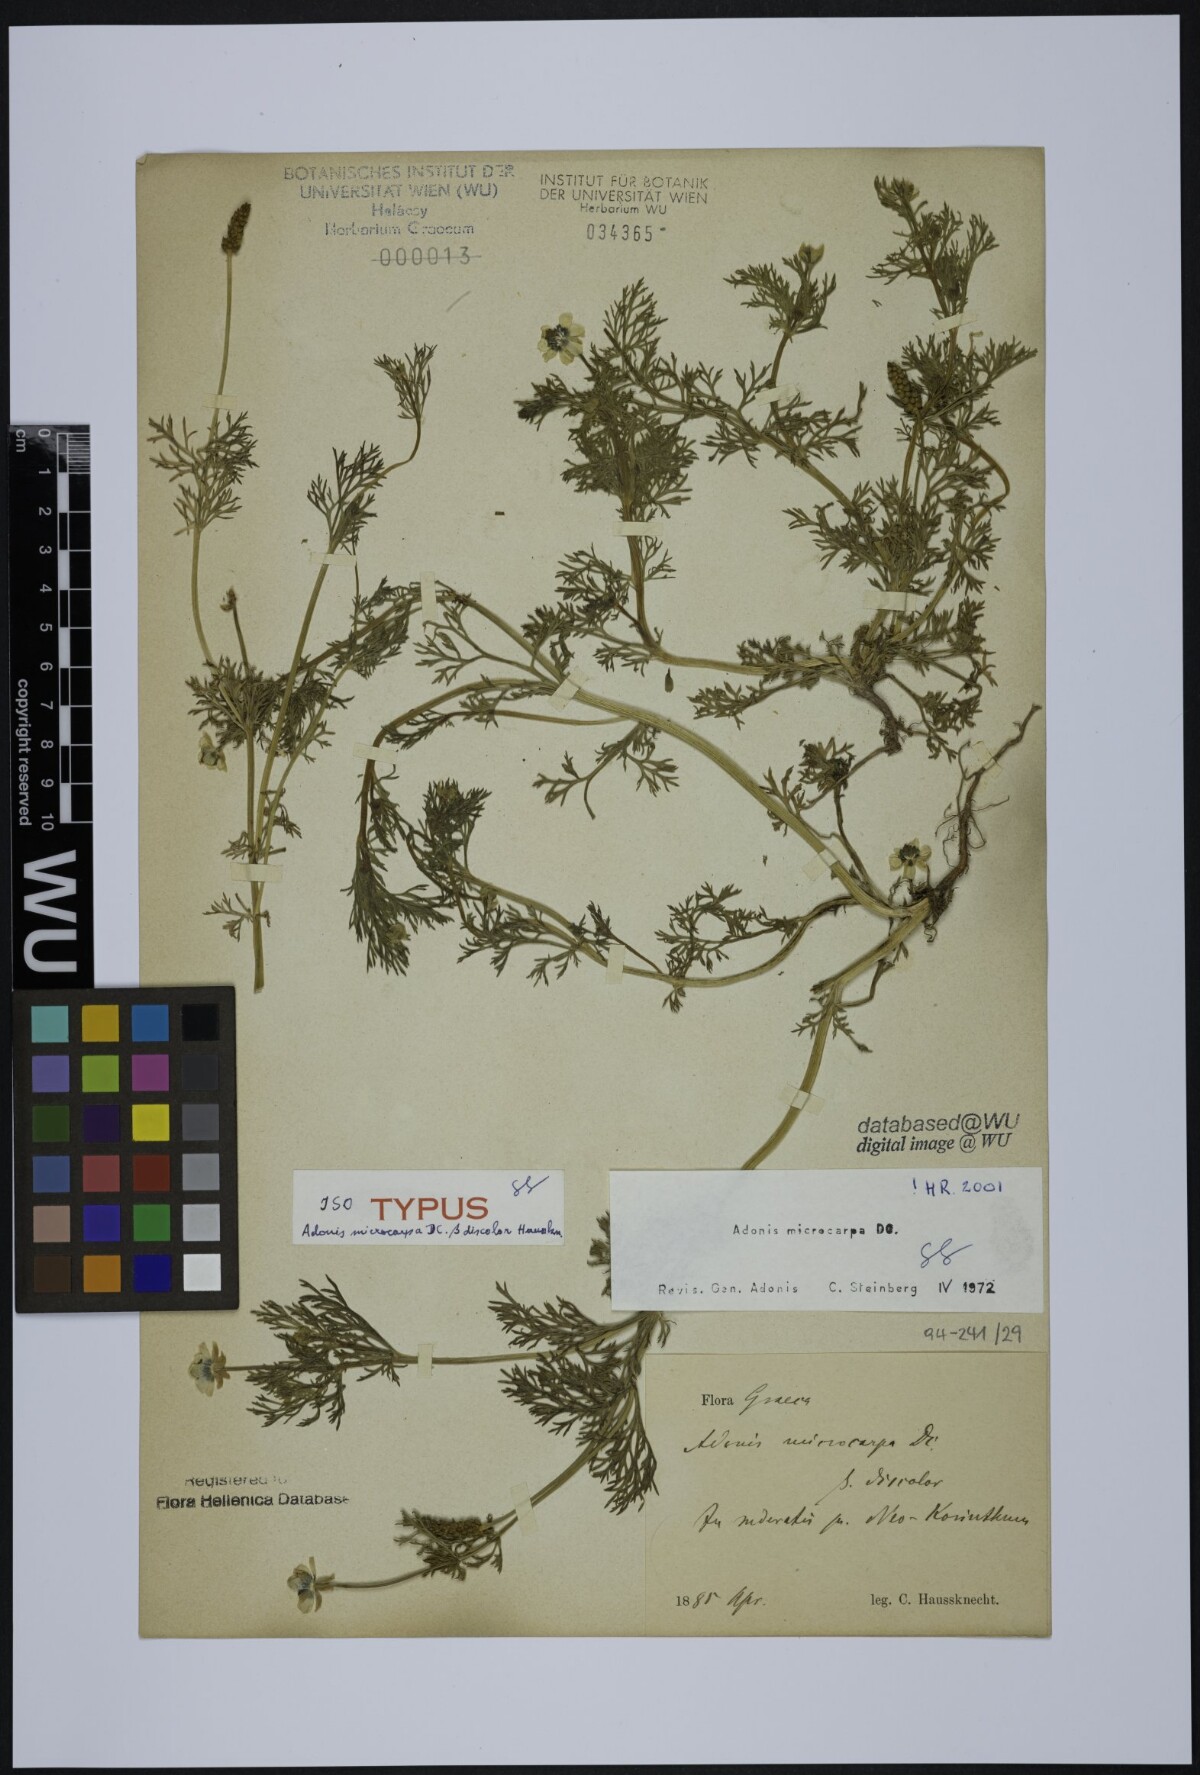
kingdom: Plantae
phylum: Tracheophyta
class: Magnoliopsida
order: Ranunculales
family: Ranunculaceae
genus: Adonis
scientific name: Adonis microcarpa
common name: Pheasant's-eye
